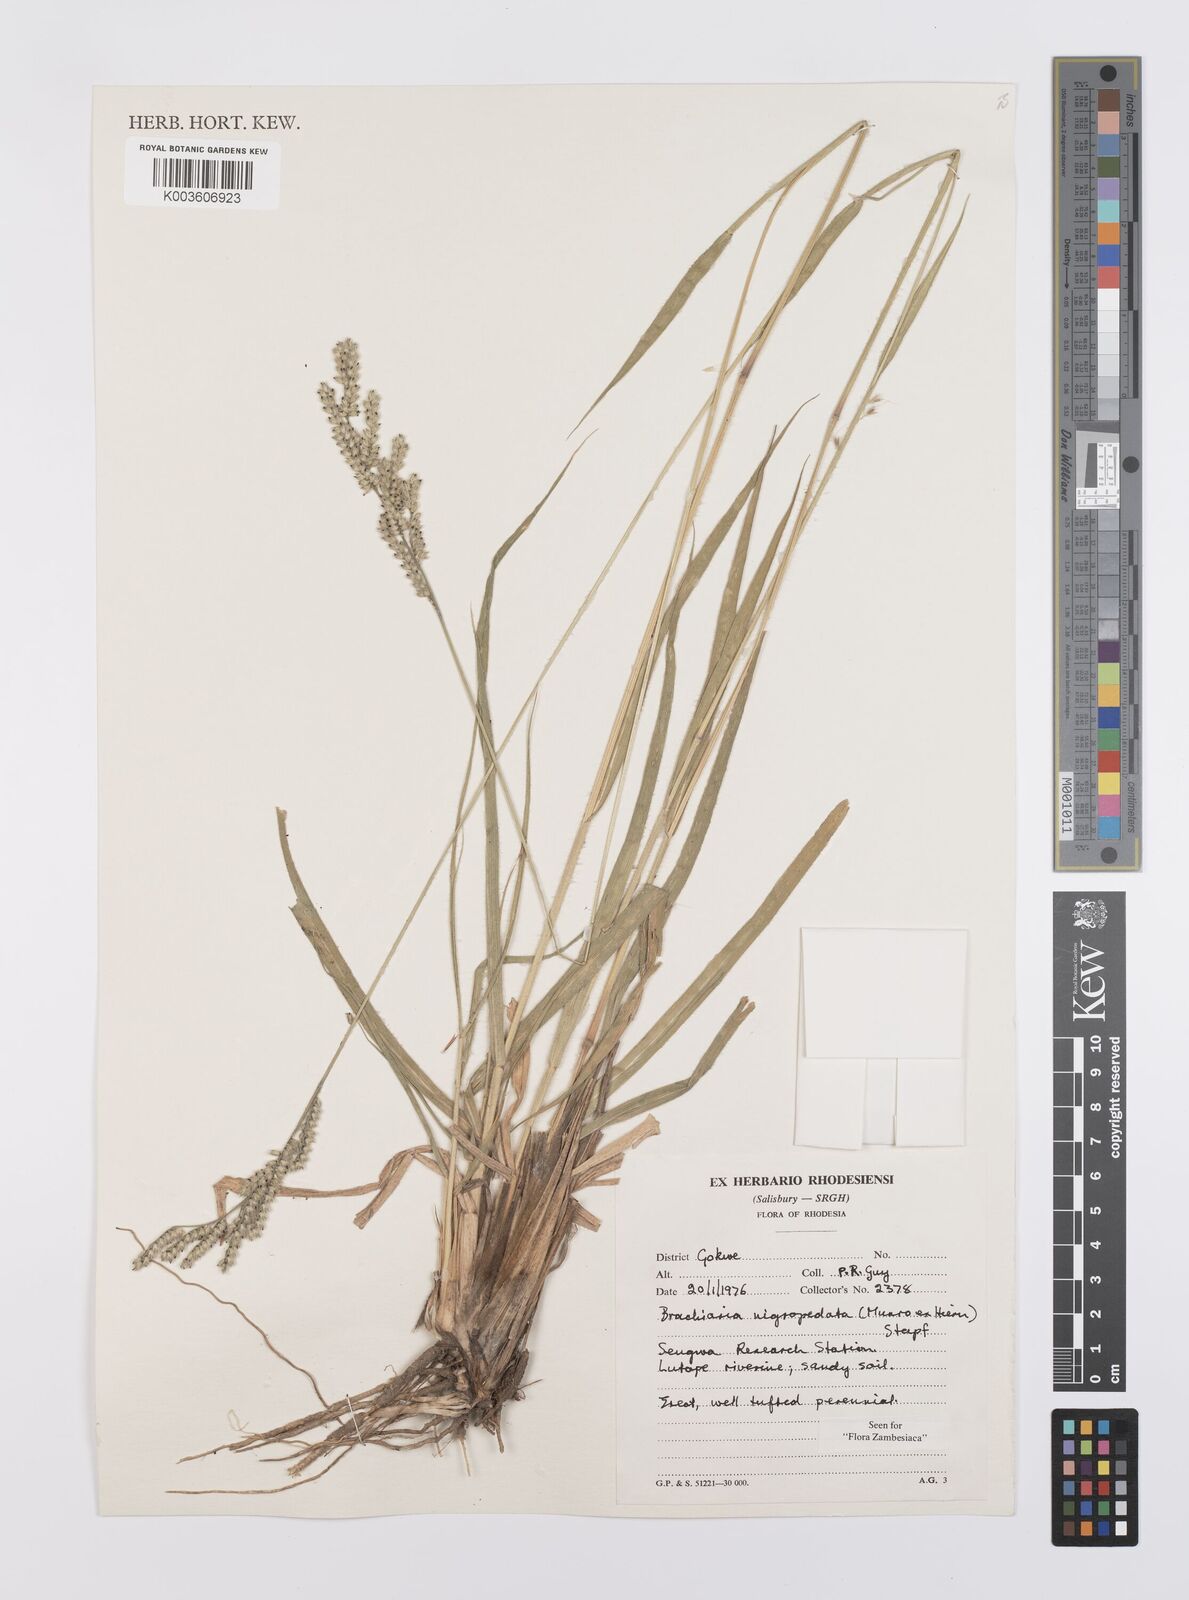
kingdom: Plantae
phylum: Tracheophyta
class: Liliopsida
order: Poales
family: Poaceae
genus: Urochloa
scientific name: Urochloa nigropedata
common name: Spotted signal grass
